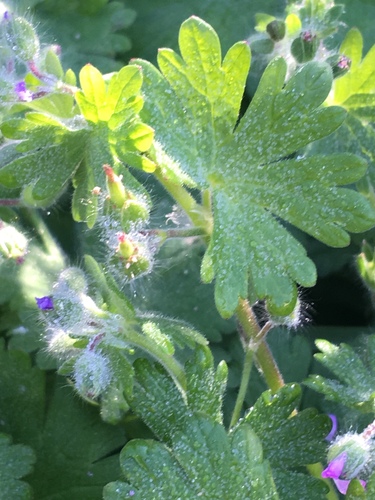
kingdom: Plantae
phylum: Tracheophyta
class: Magnoliopsida
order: Geraniales
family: Geraniaceae
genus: Geranium
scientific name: Geranium molle
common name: Dove's-foot crane's-bill
